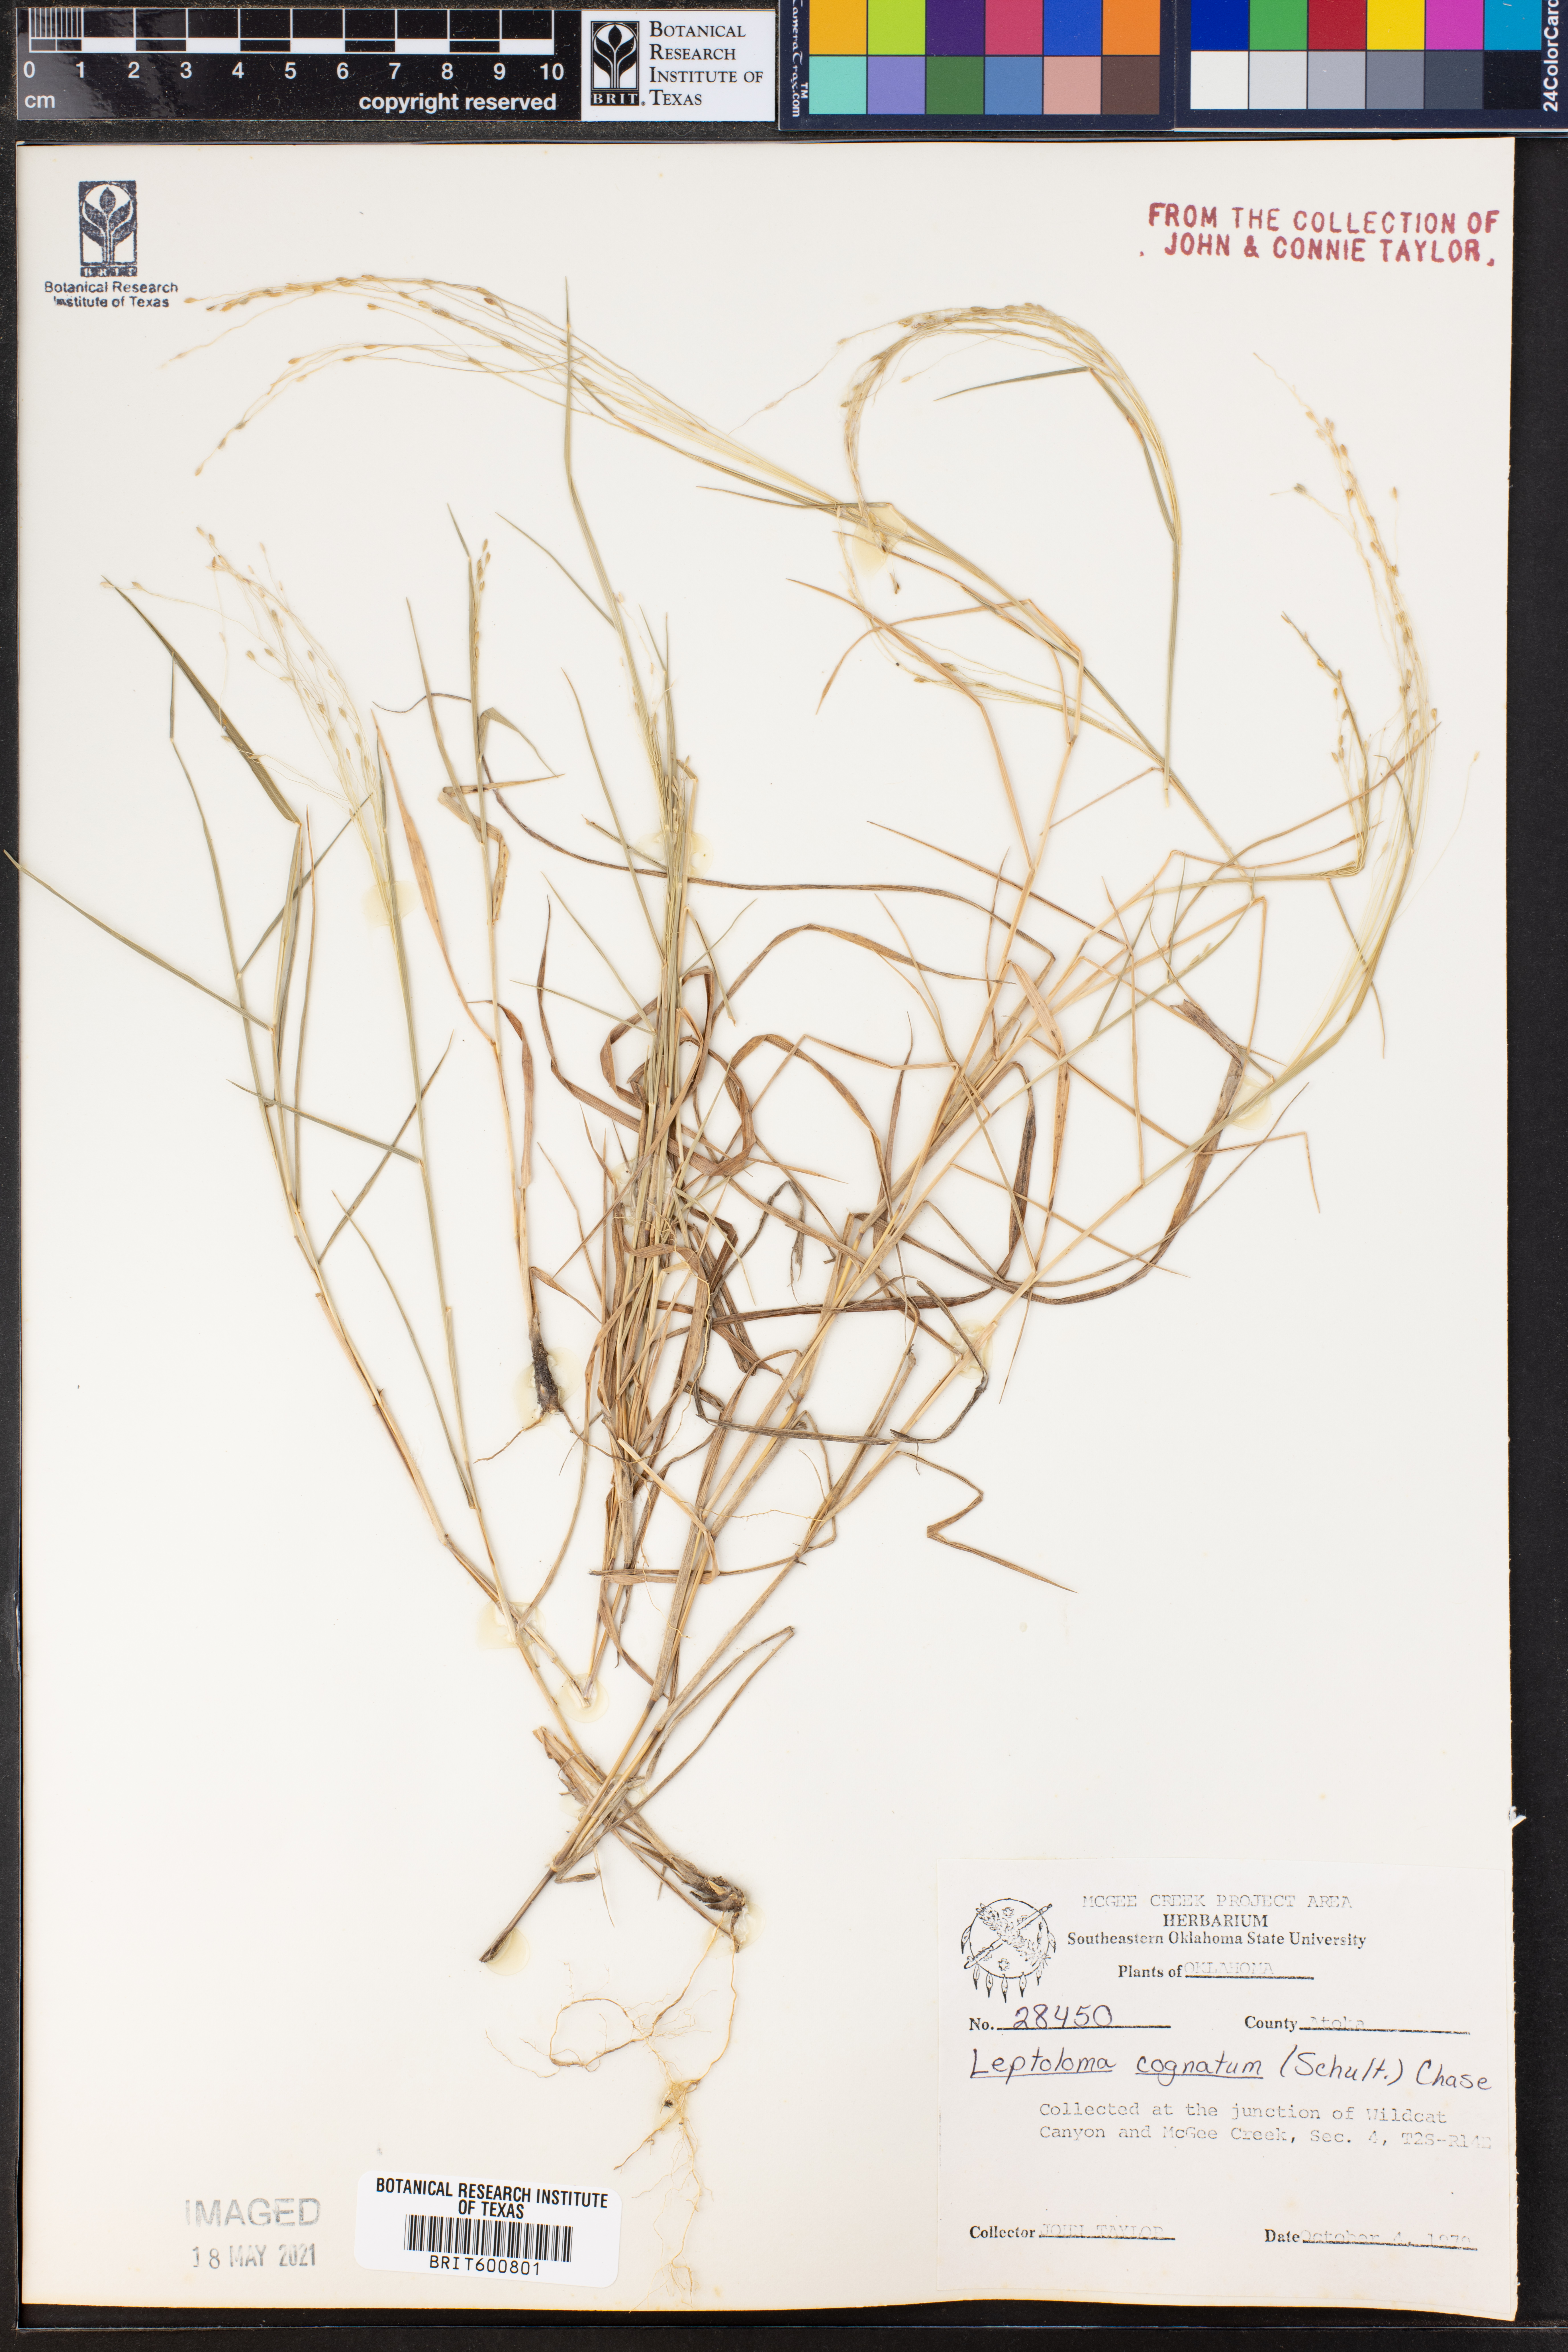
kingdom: Plantae
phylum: Tracheophyta
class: Liliopsida
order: Poales
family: Poaceae
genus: Digitaria
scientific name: Digitaria cognata
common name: Fall witchgrass
